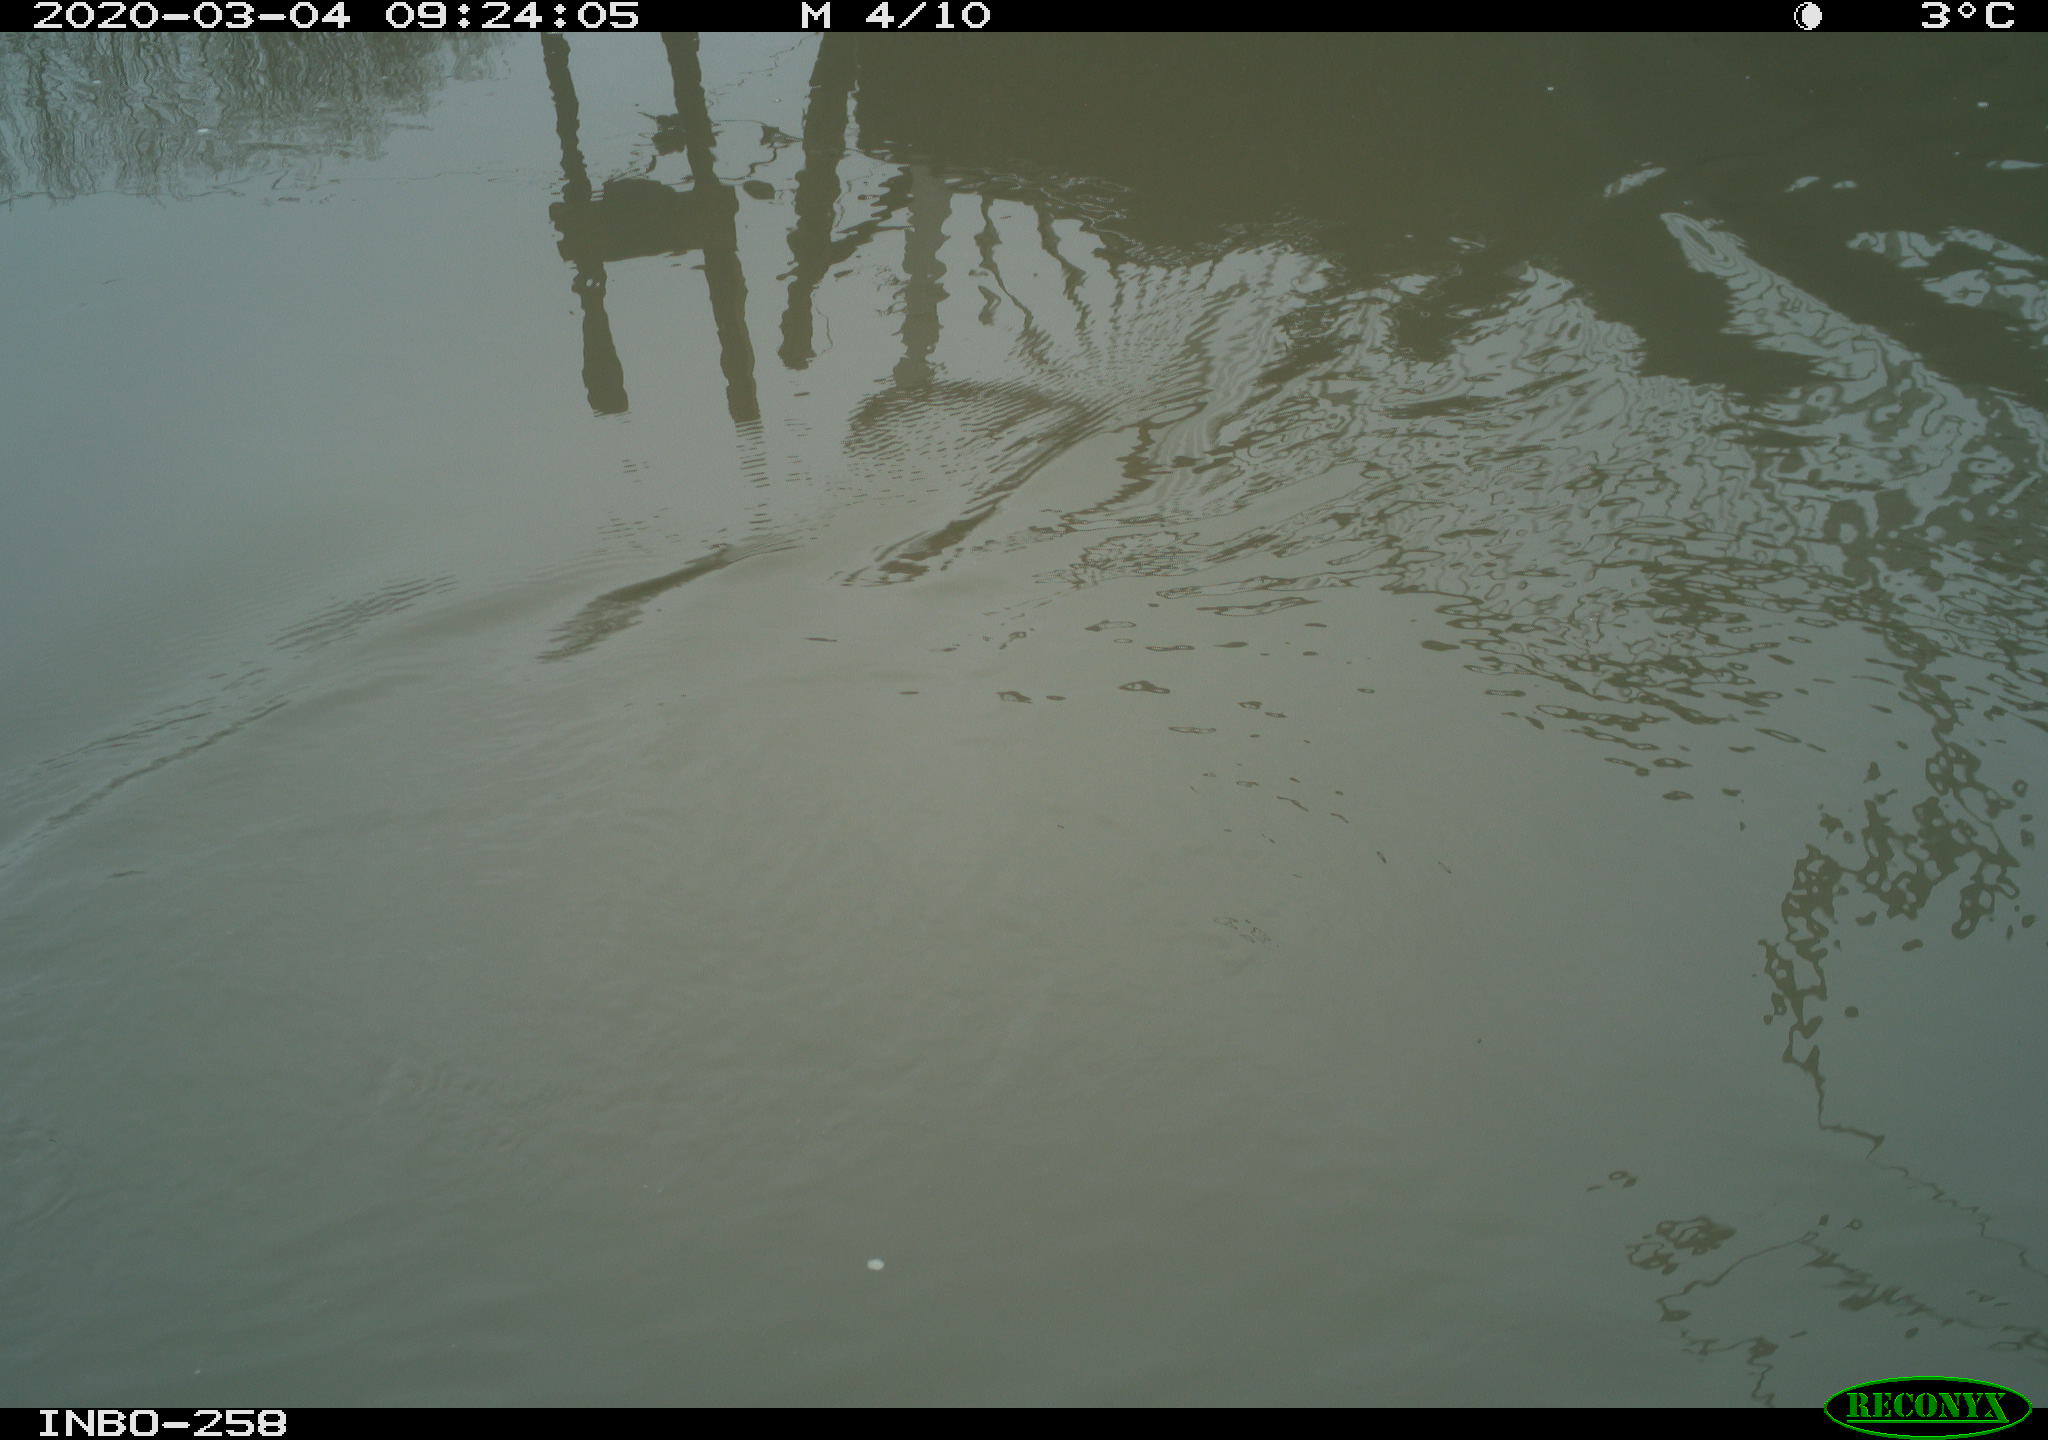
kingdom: Animalia
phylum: Chordata
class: Aves
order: Anseriformes
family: Anatidae
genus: Anas
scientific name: Anas platyrhynchos
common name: Mallard
